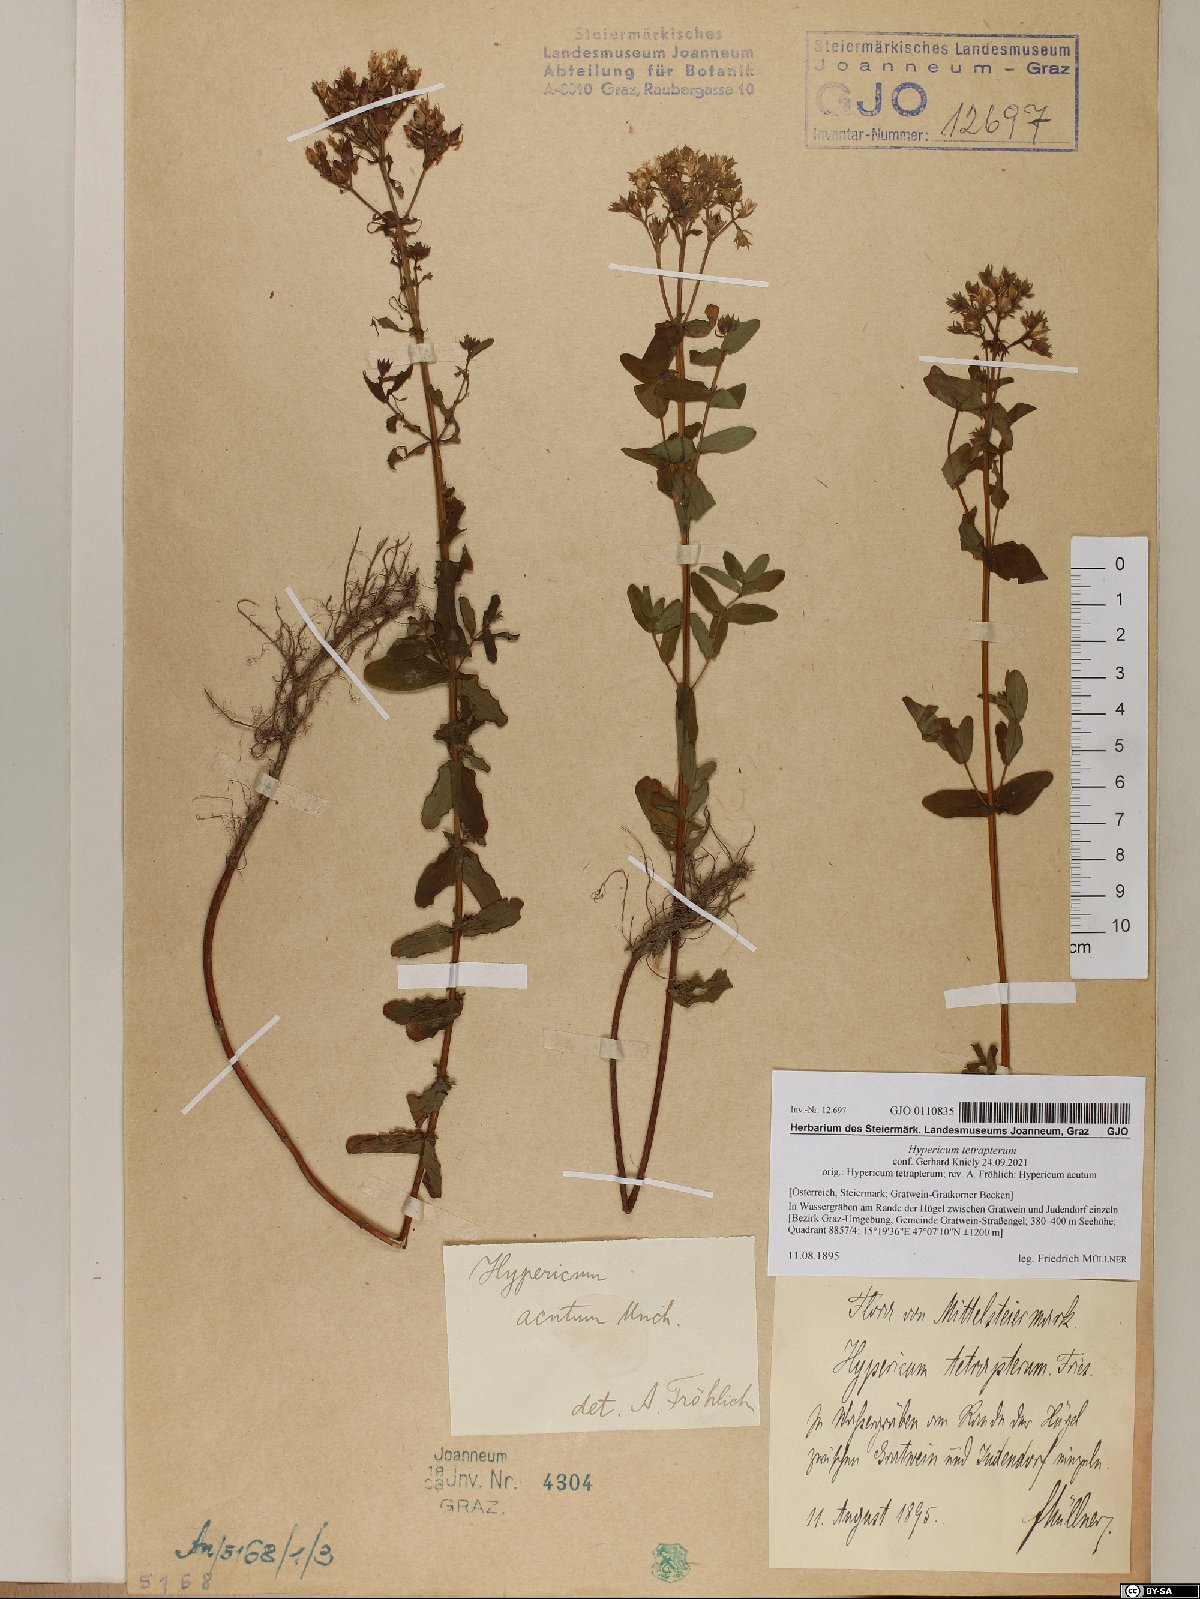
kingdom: Plantae
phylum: Tracheophyta
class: Magnoliopsida
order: Malpighiales
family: Hypericaceae
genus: Hypericum
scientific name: Hypericum tetrapterum
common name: Square-stalked st. john's-wort
